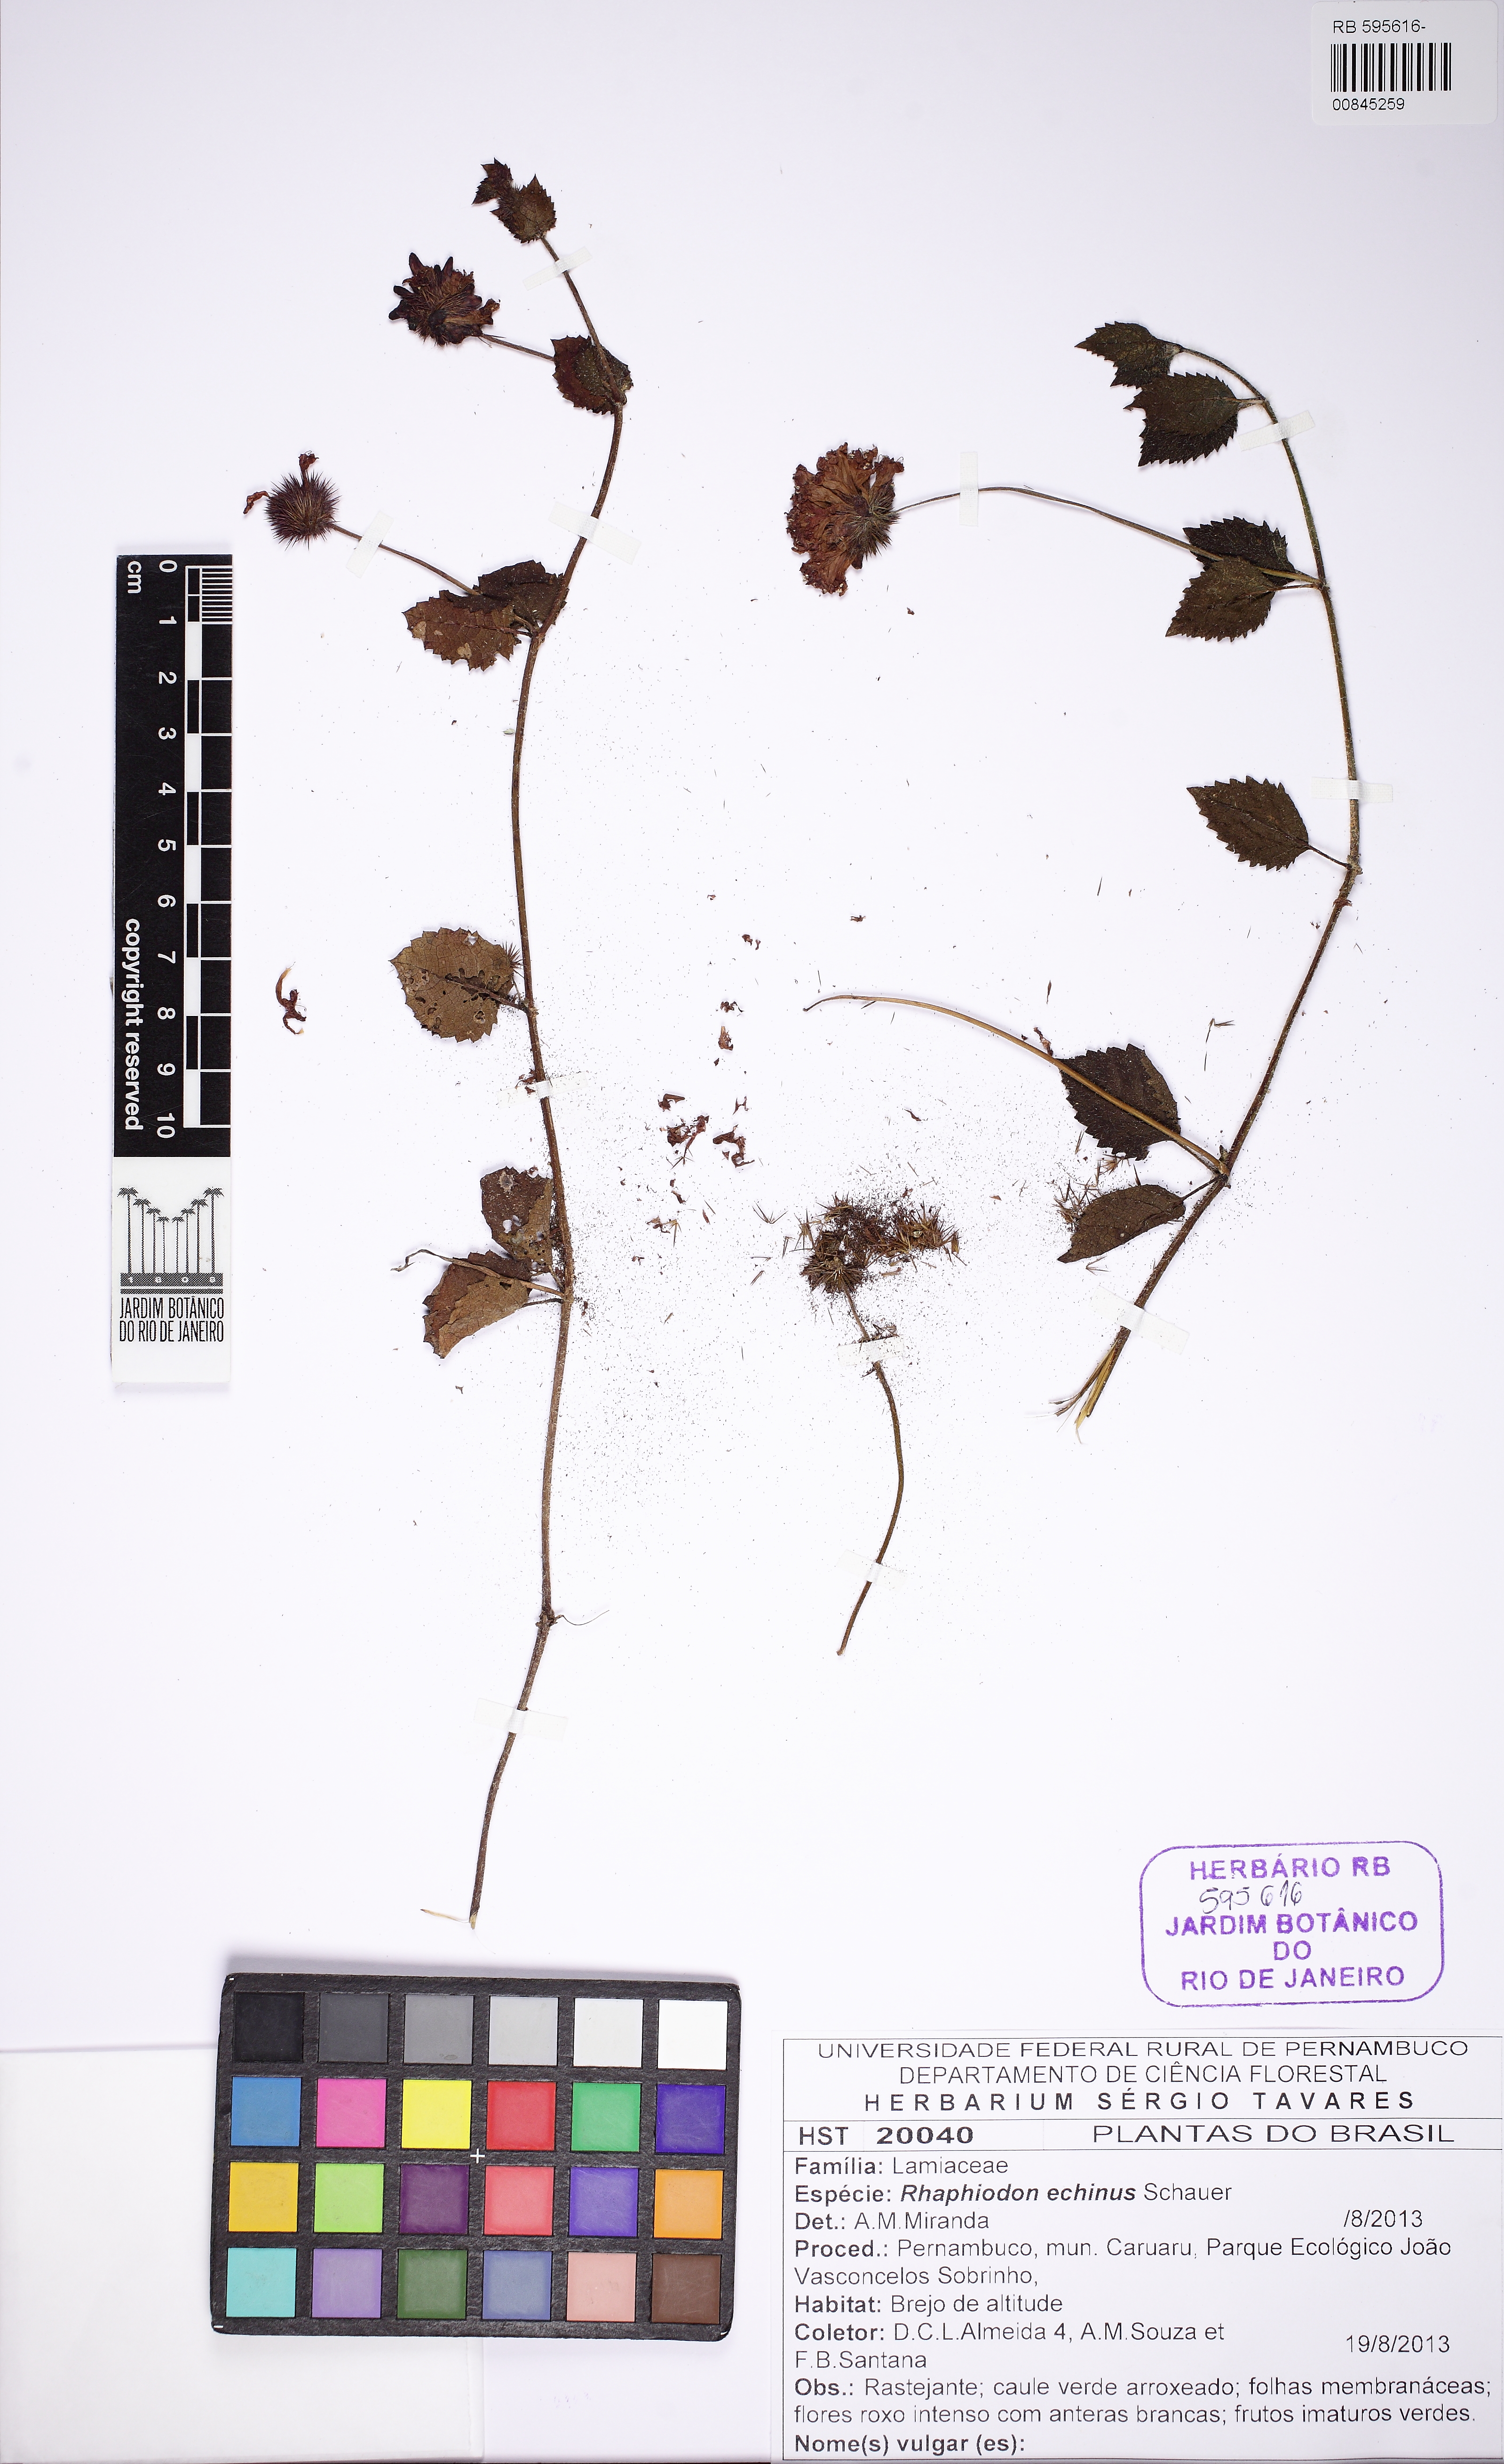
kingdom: Plantae
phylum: Tracheophyta
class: Magnoliopsida
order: Lamiales
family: Lamiaceae
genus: Rhaphiodon
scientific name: Rhaphiodon echinus
